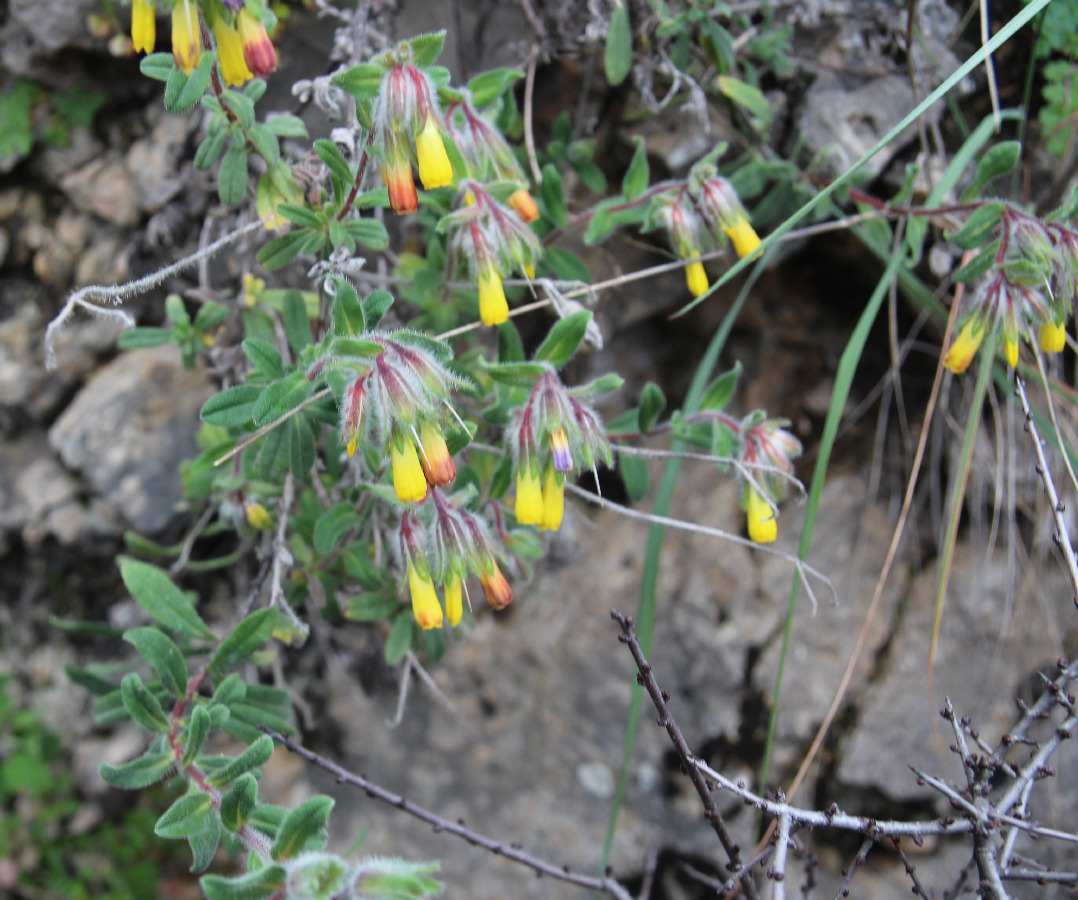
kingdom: Plantae
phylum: Tracheophyta
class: Magnoliopsida
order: Boraginales
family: Boraginaceae
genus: Onosma
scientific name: Onosma graeca
